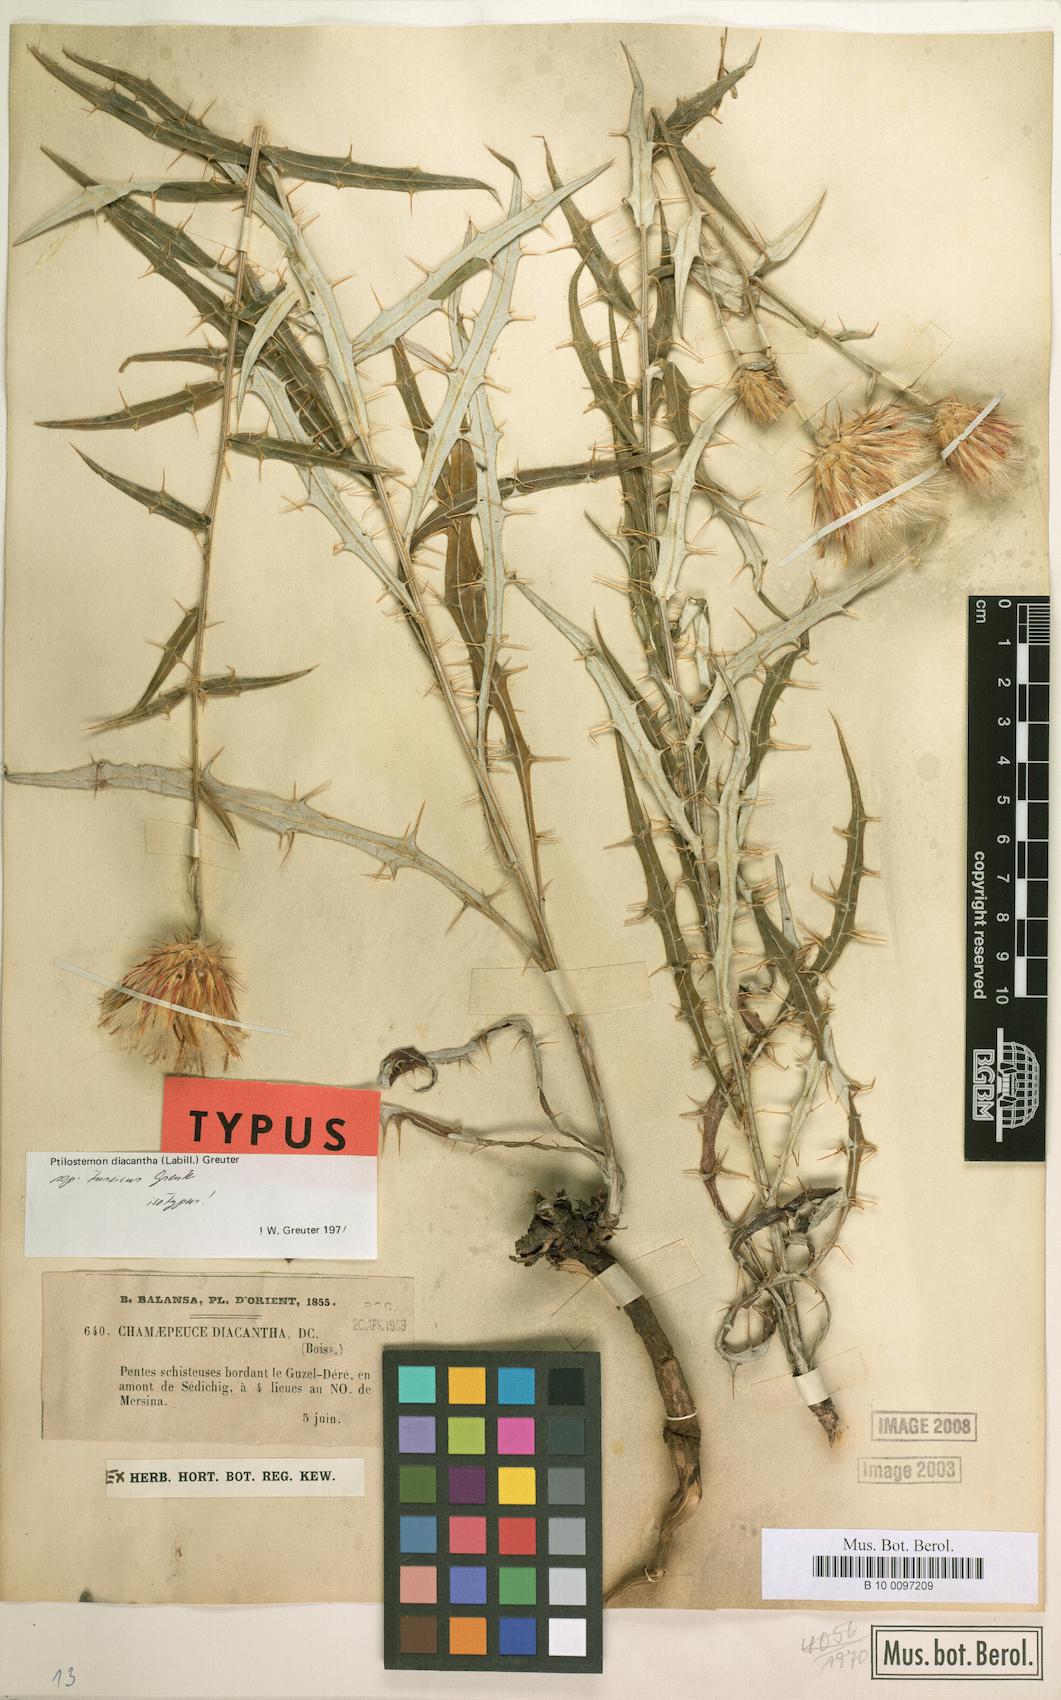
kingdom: Plantae
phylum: Tracheophyta
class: Magnoliopsida
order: Asterales
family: Asteraceae
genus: Ptilostemon
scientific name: Ptilostemon diacanthus
